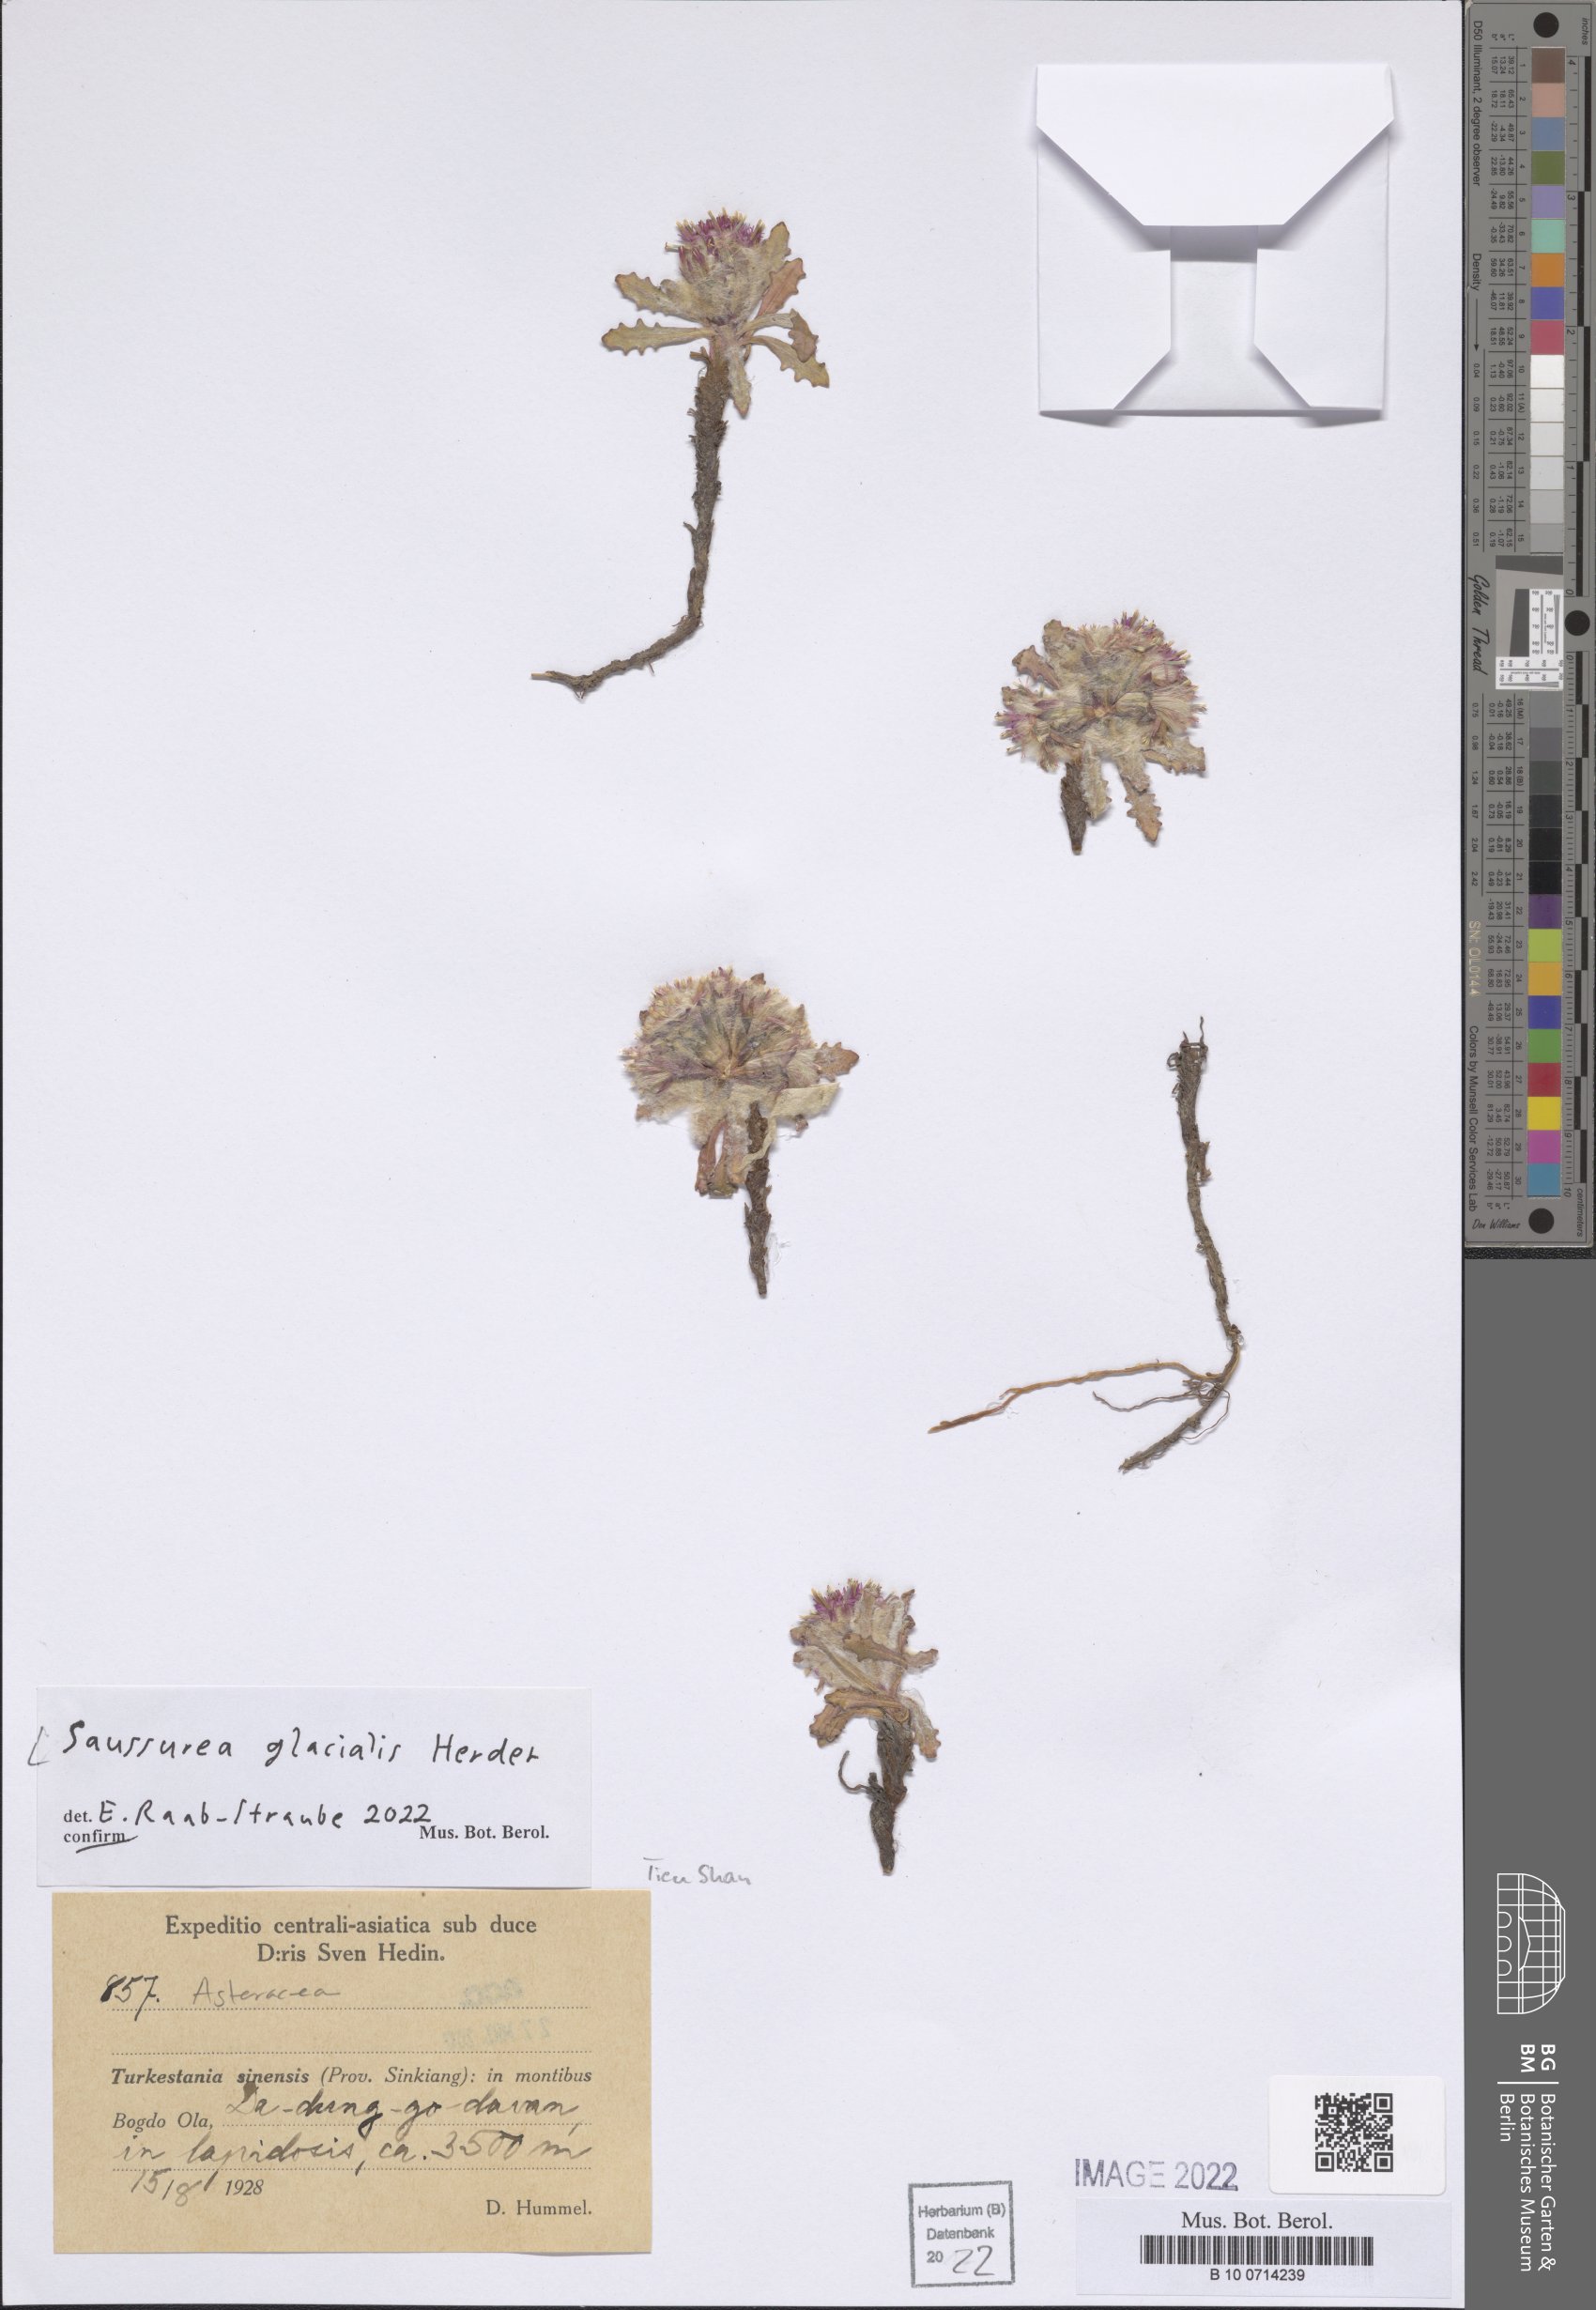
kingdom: Plantae
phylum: Tracheophyta
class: Magnoliopsida
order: Asterales
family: Asteraceae
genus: Saussurea
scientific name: Saussurea glacialis
